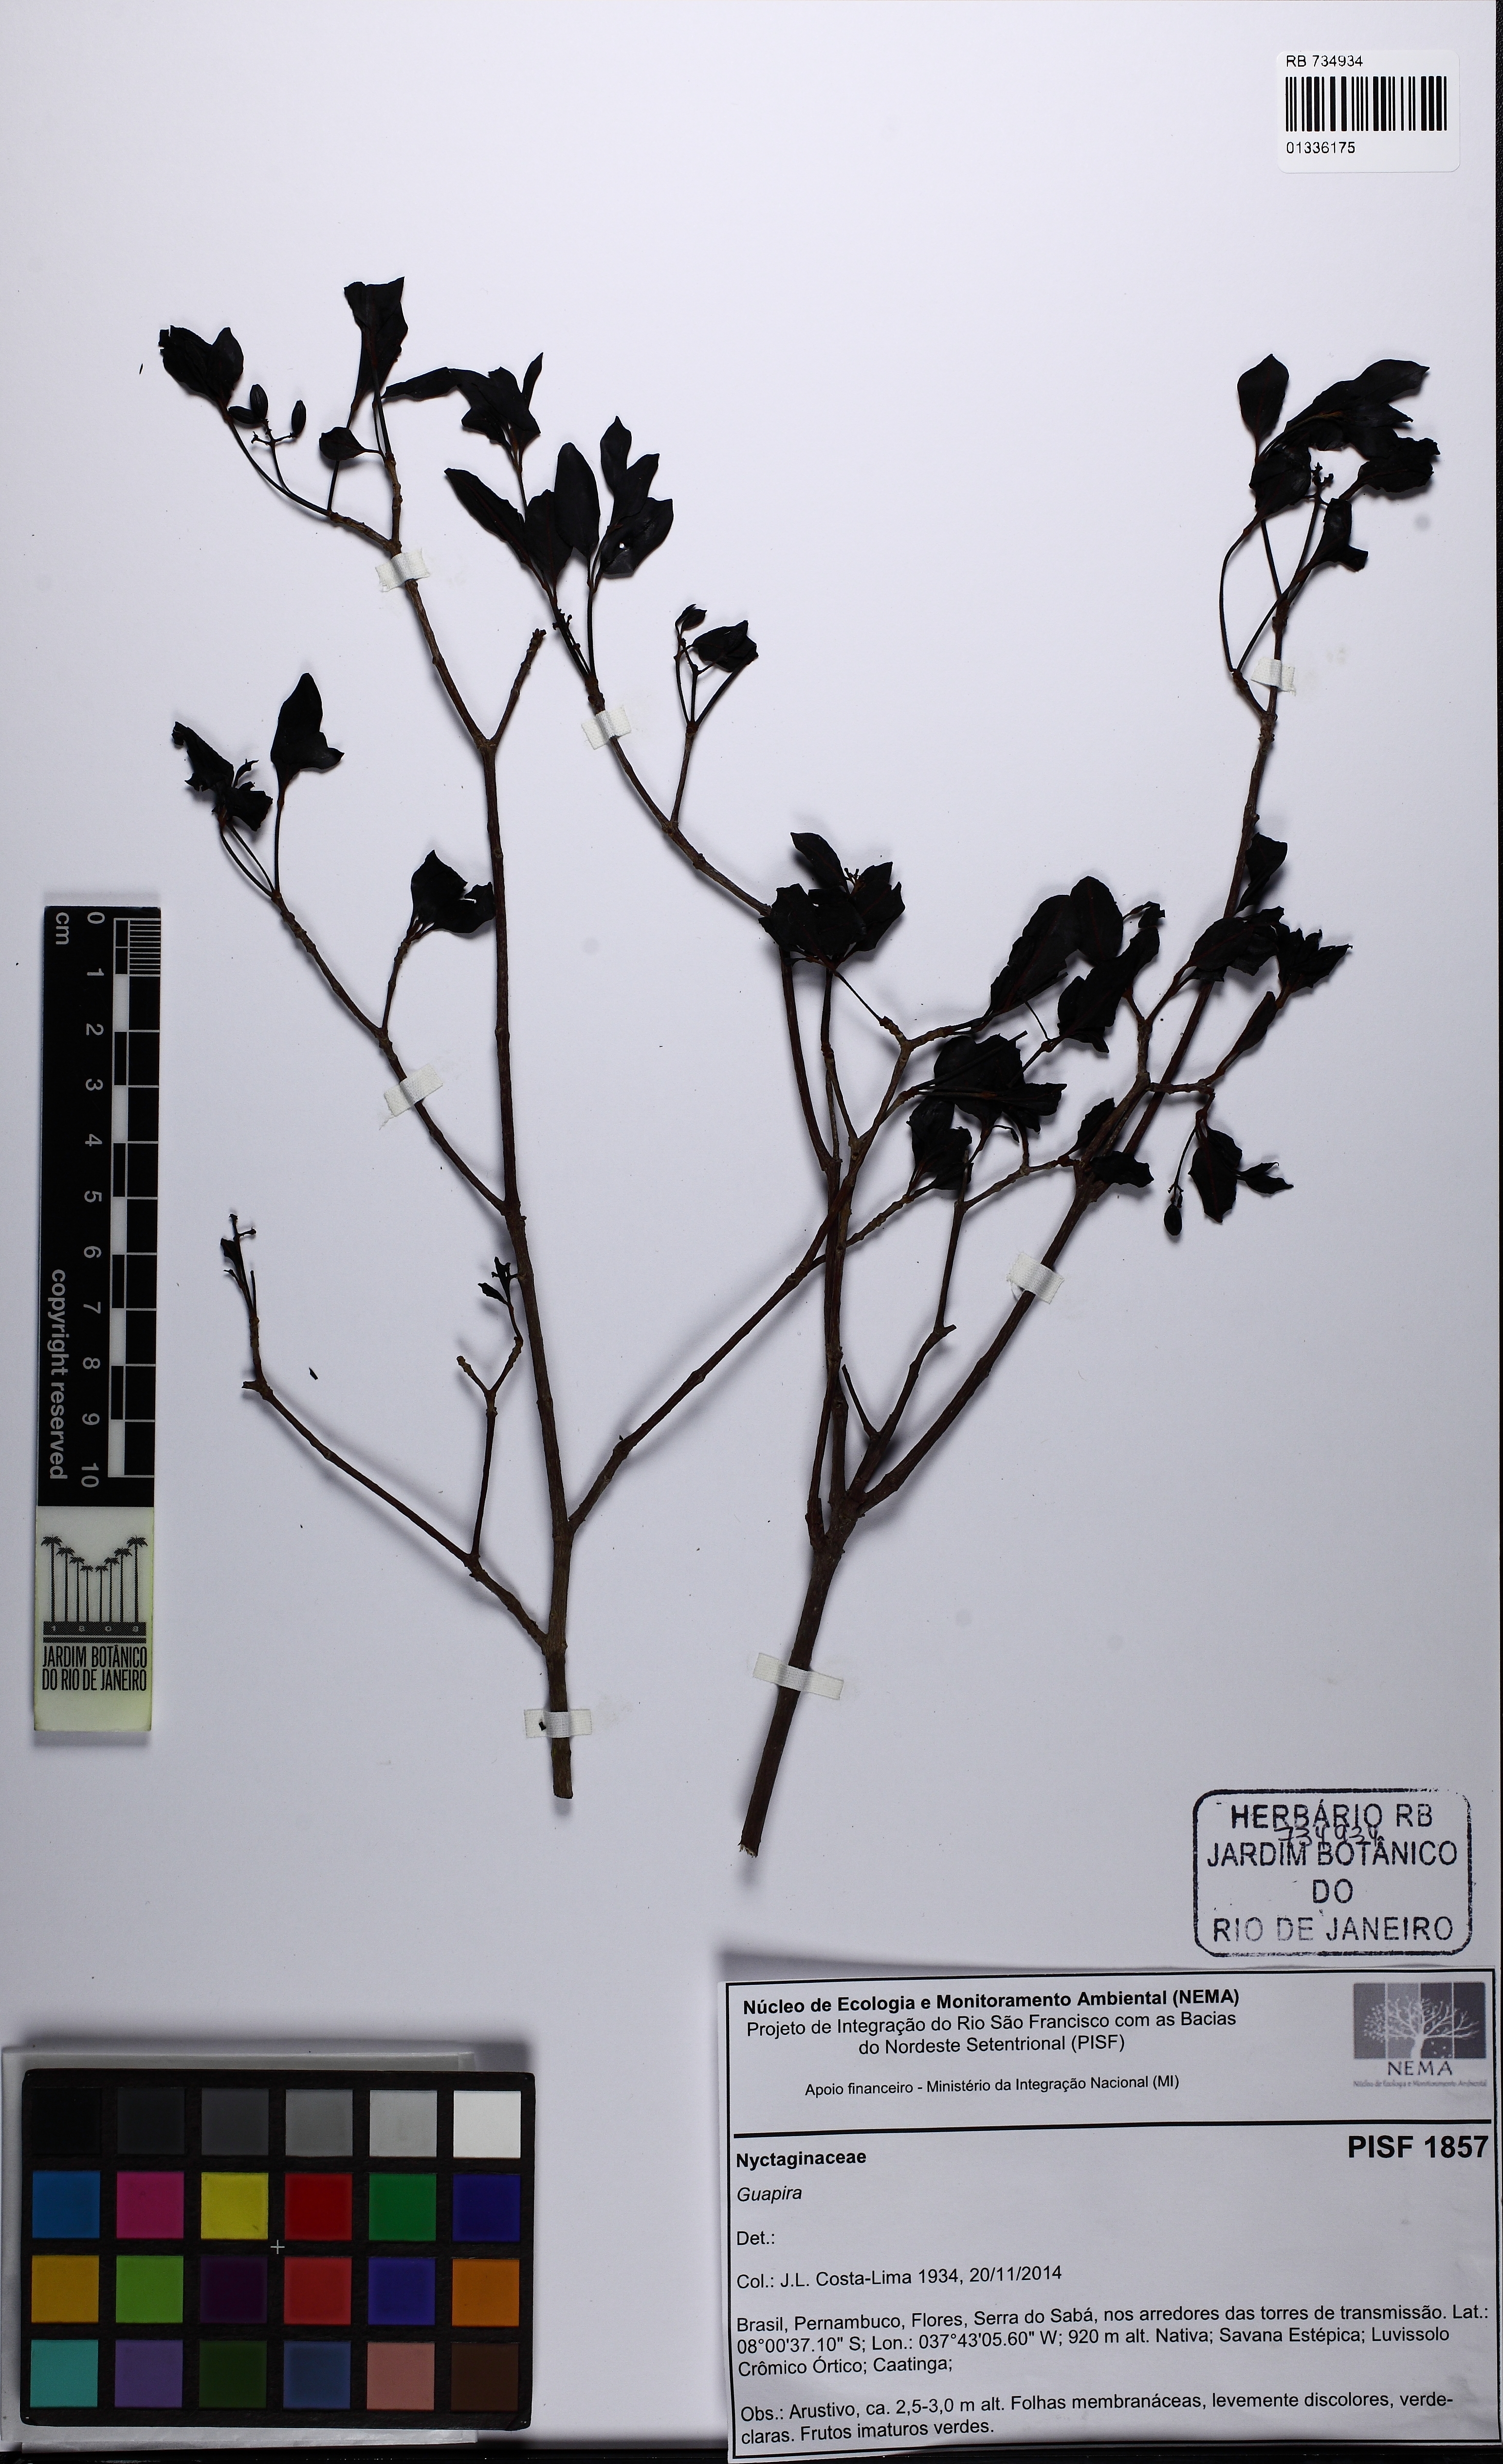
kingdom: Plantae
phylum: Tracheophyta
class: Magnoliopsida
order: Caryophyllales
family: Nyctaginaceae
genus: Guapira
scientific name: Guapira
